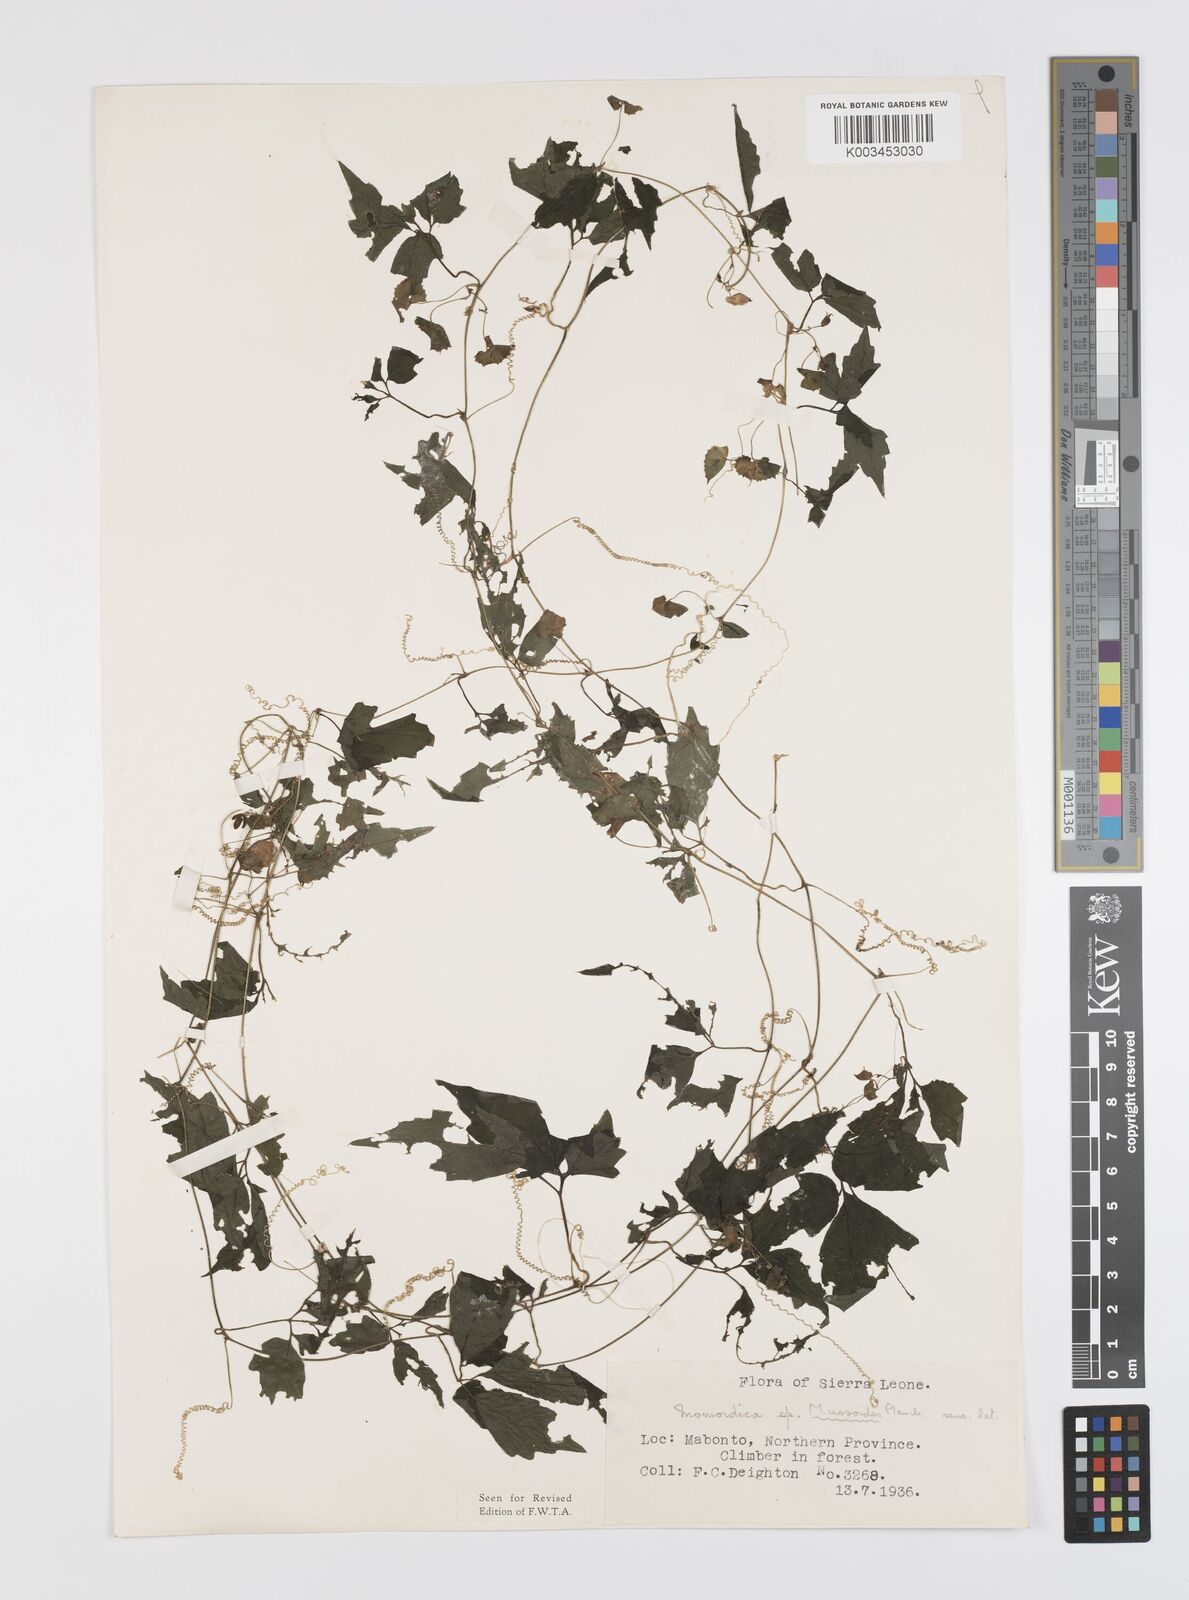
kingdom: Plantae
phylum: Tracheophyta
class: Magnoliopsida
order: Cucurbitales
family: Cucurbitaceae
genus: Momordica
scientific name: Momordica cissoides
